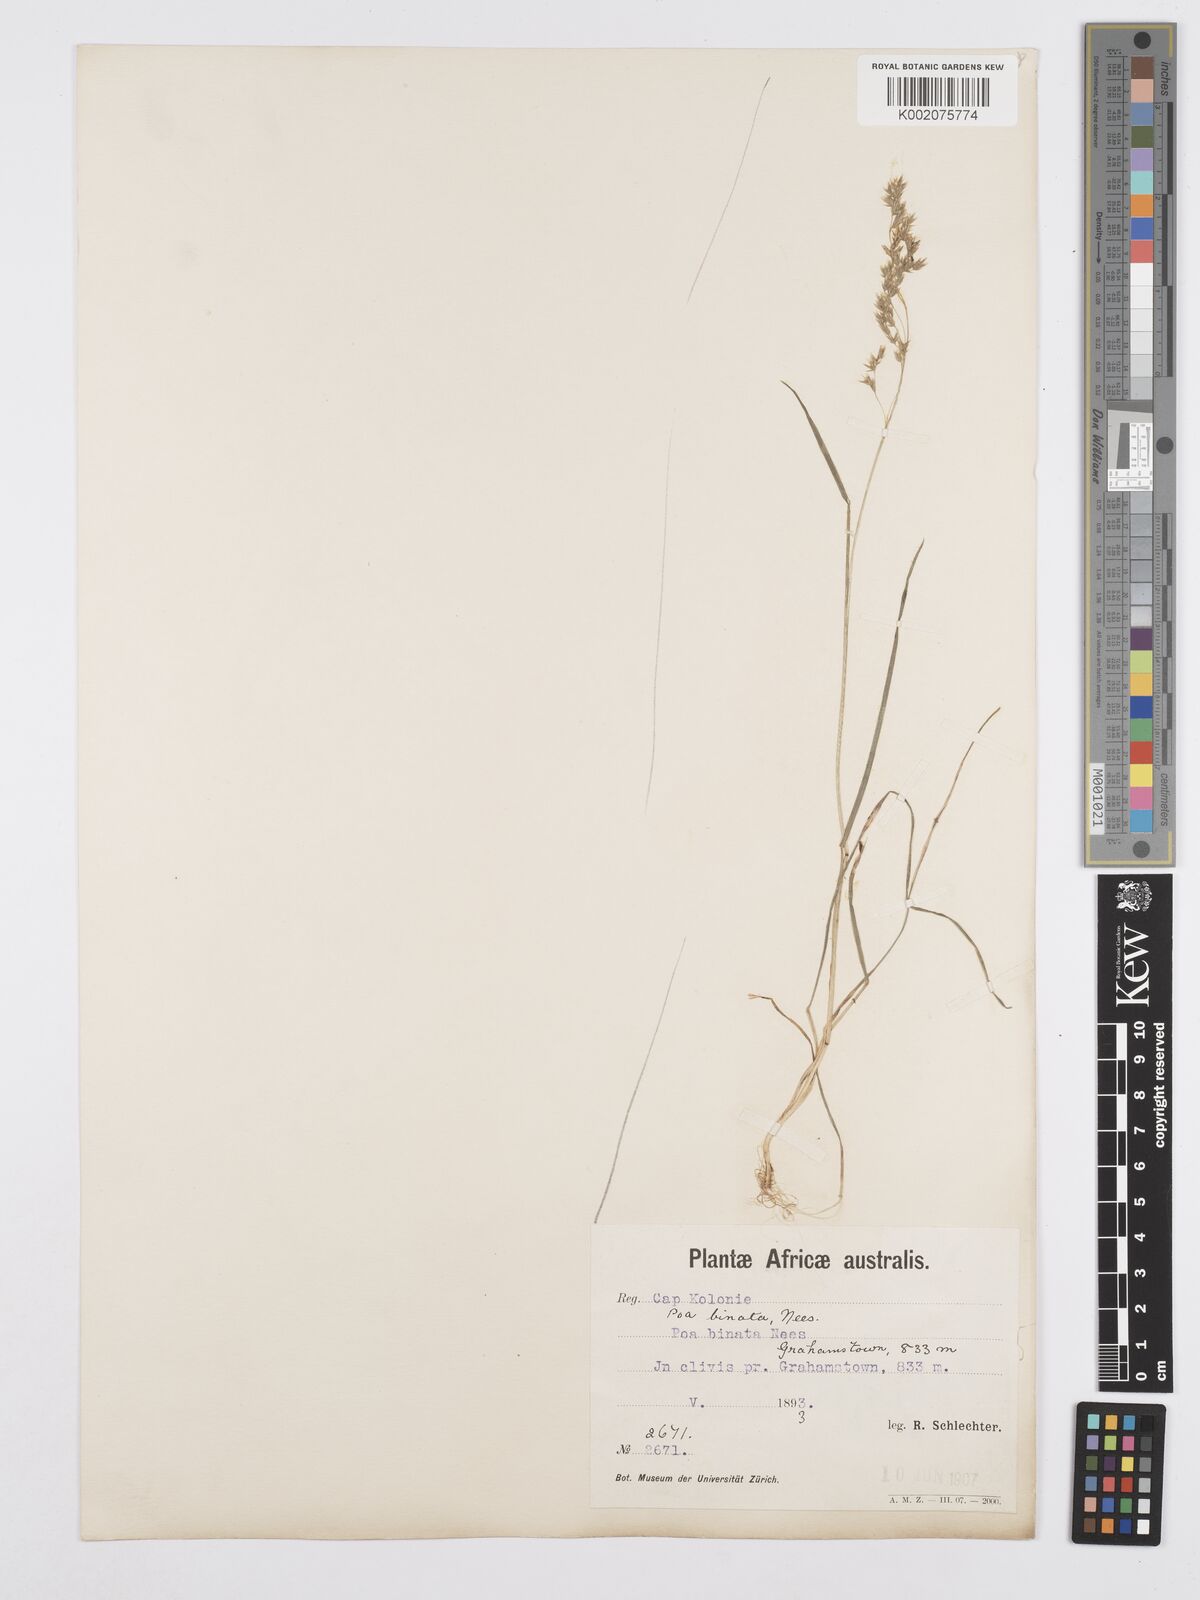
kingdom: Plantae
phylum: Tracheophyta
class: Liliopsida
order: Poales
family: Poaceae
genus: Poa
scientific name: Poa binata
